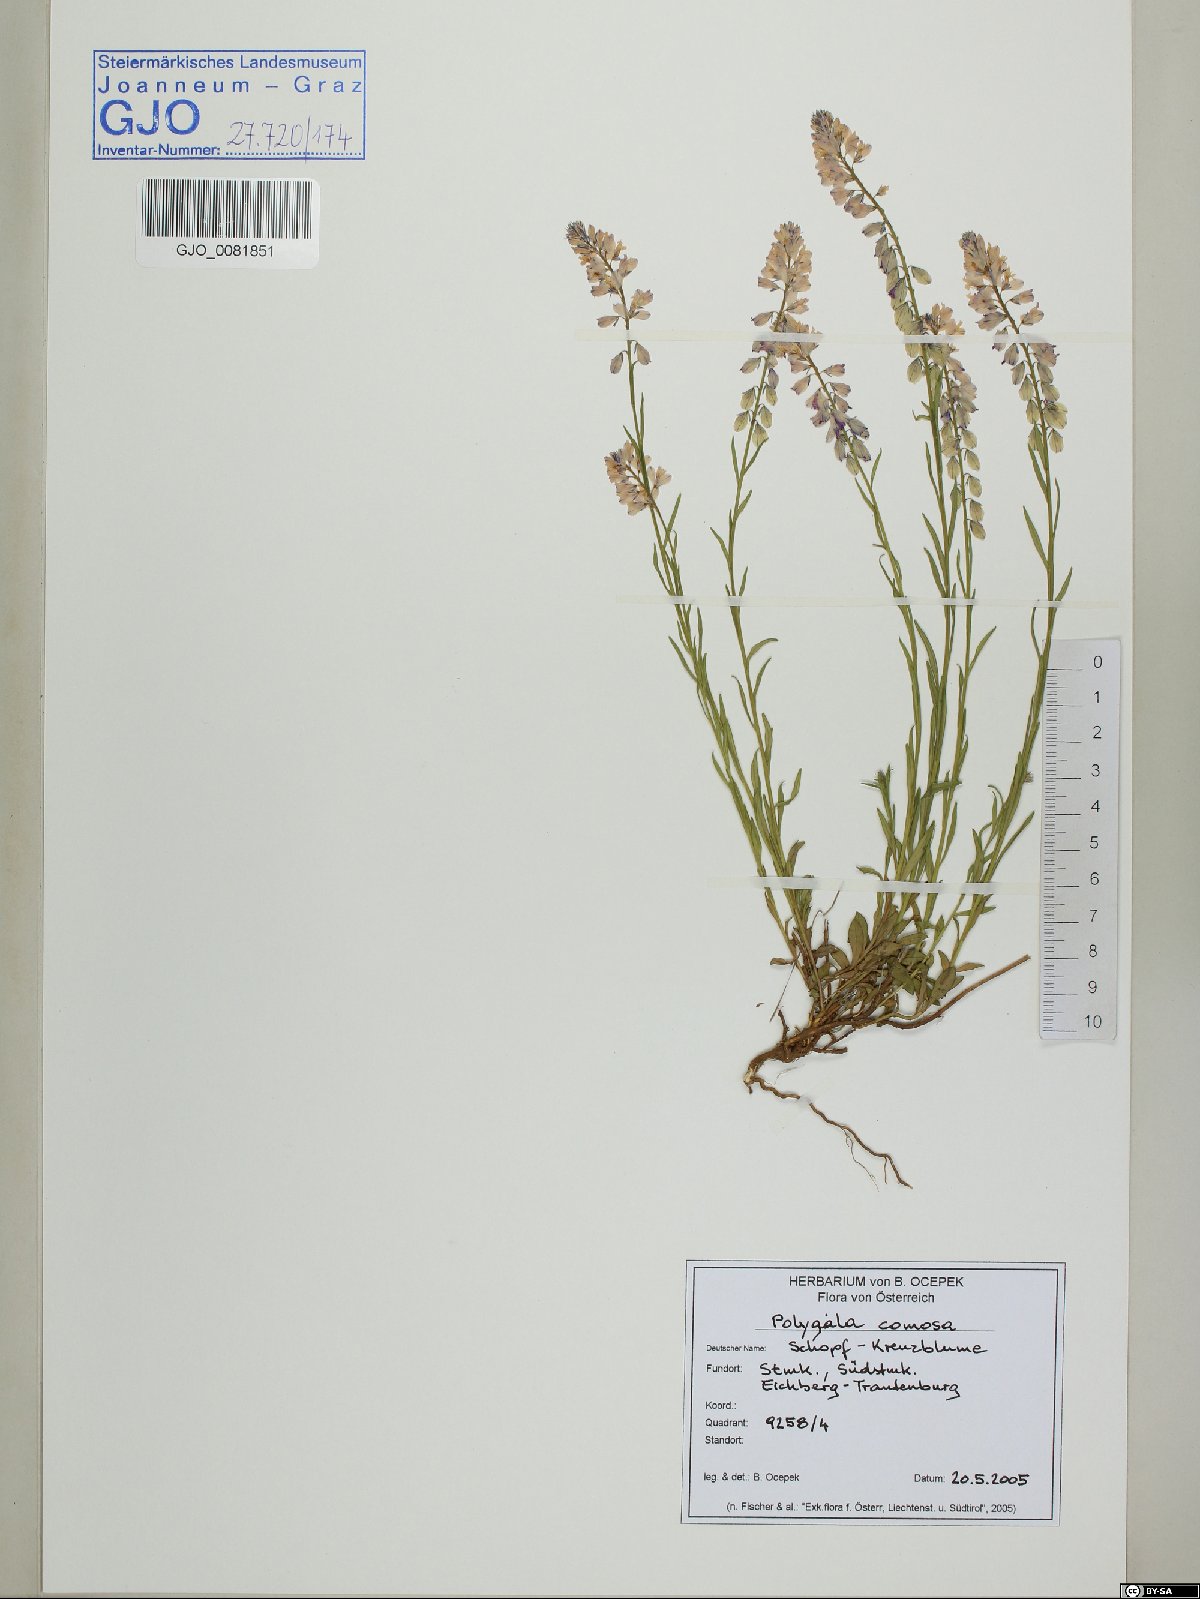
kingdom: Plantae
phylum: Tracheophyta
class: Magnoliopsida
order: Fabales
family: Polygalaceae
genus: Polygala
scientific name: Polygala comosa
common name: Tufted milkwort
